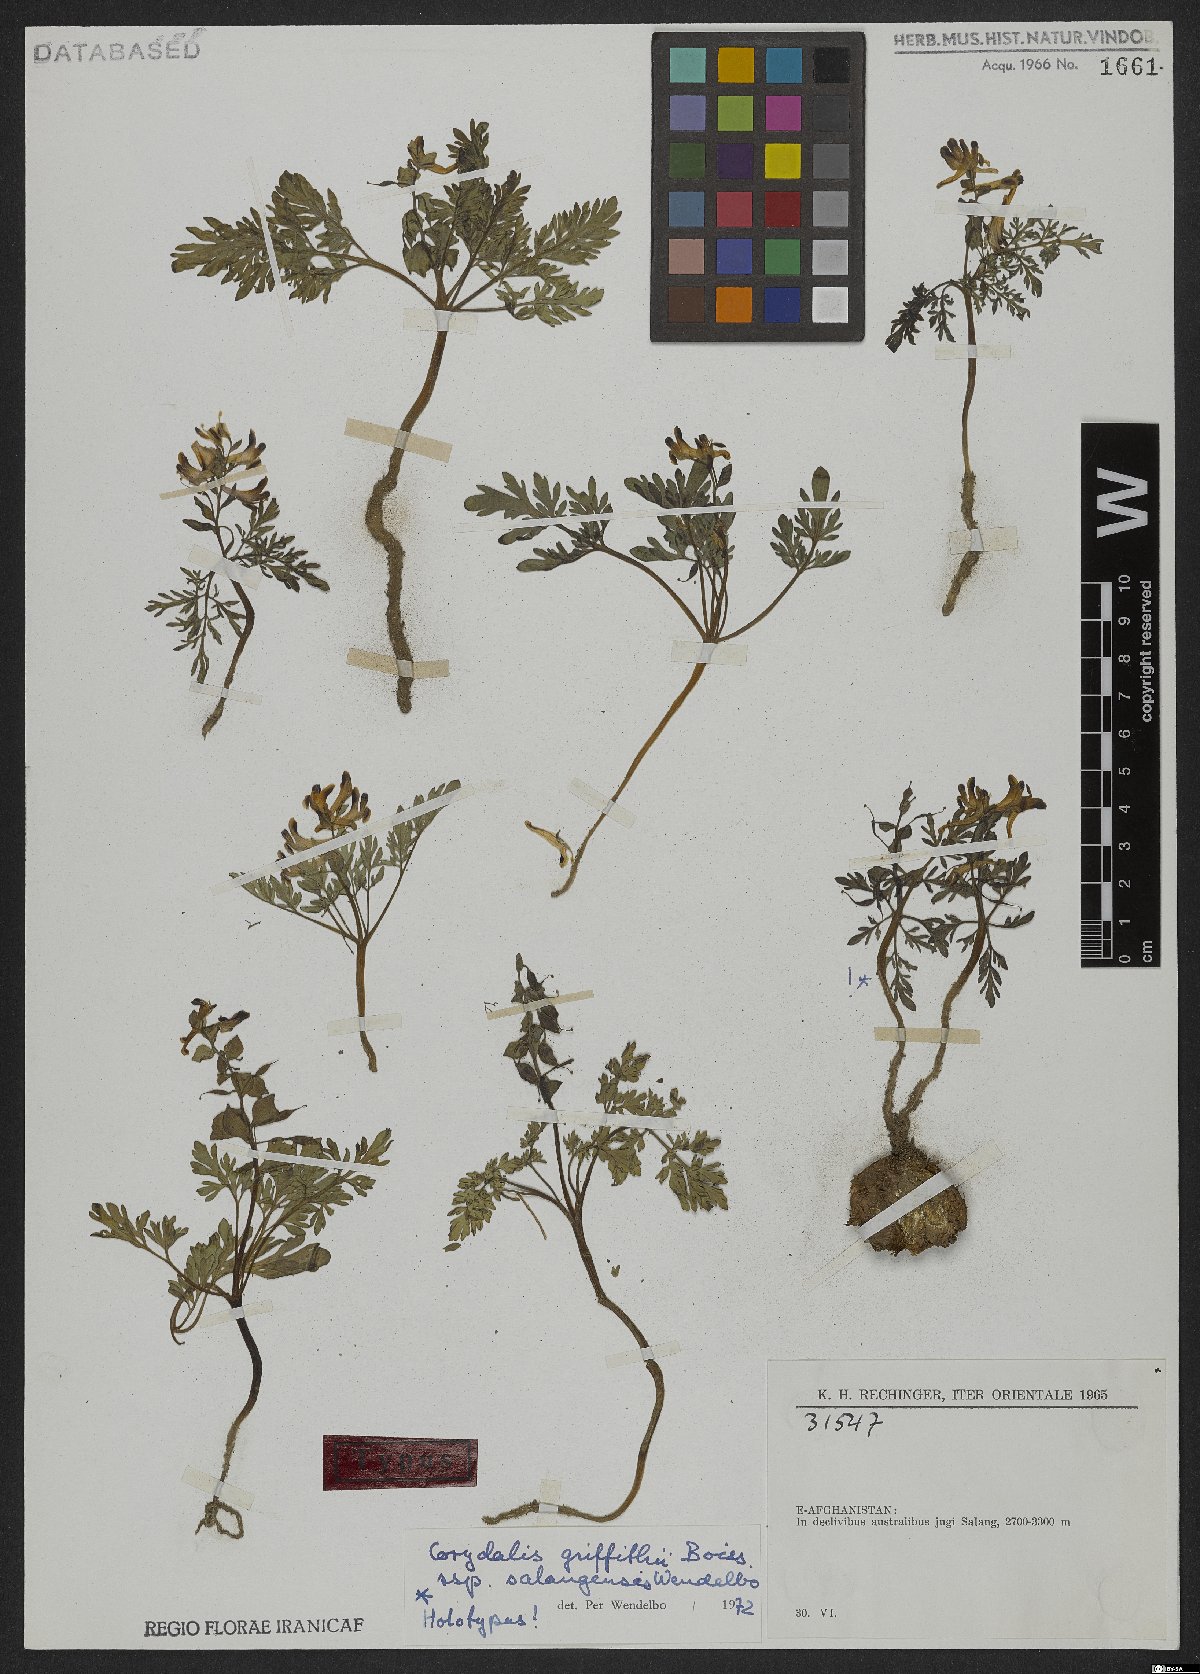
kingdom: Plantae
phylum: Tracheophyta
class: Magnoliopsida
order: Ranunculales
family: Papaveraceae
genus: Corydalis
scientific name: Corydalis griffithii
